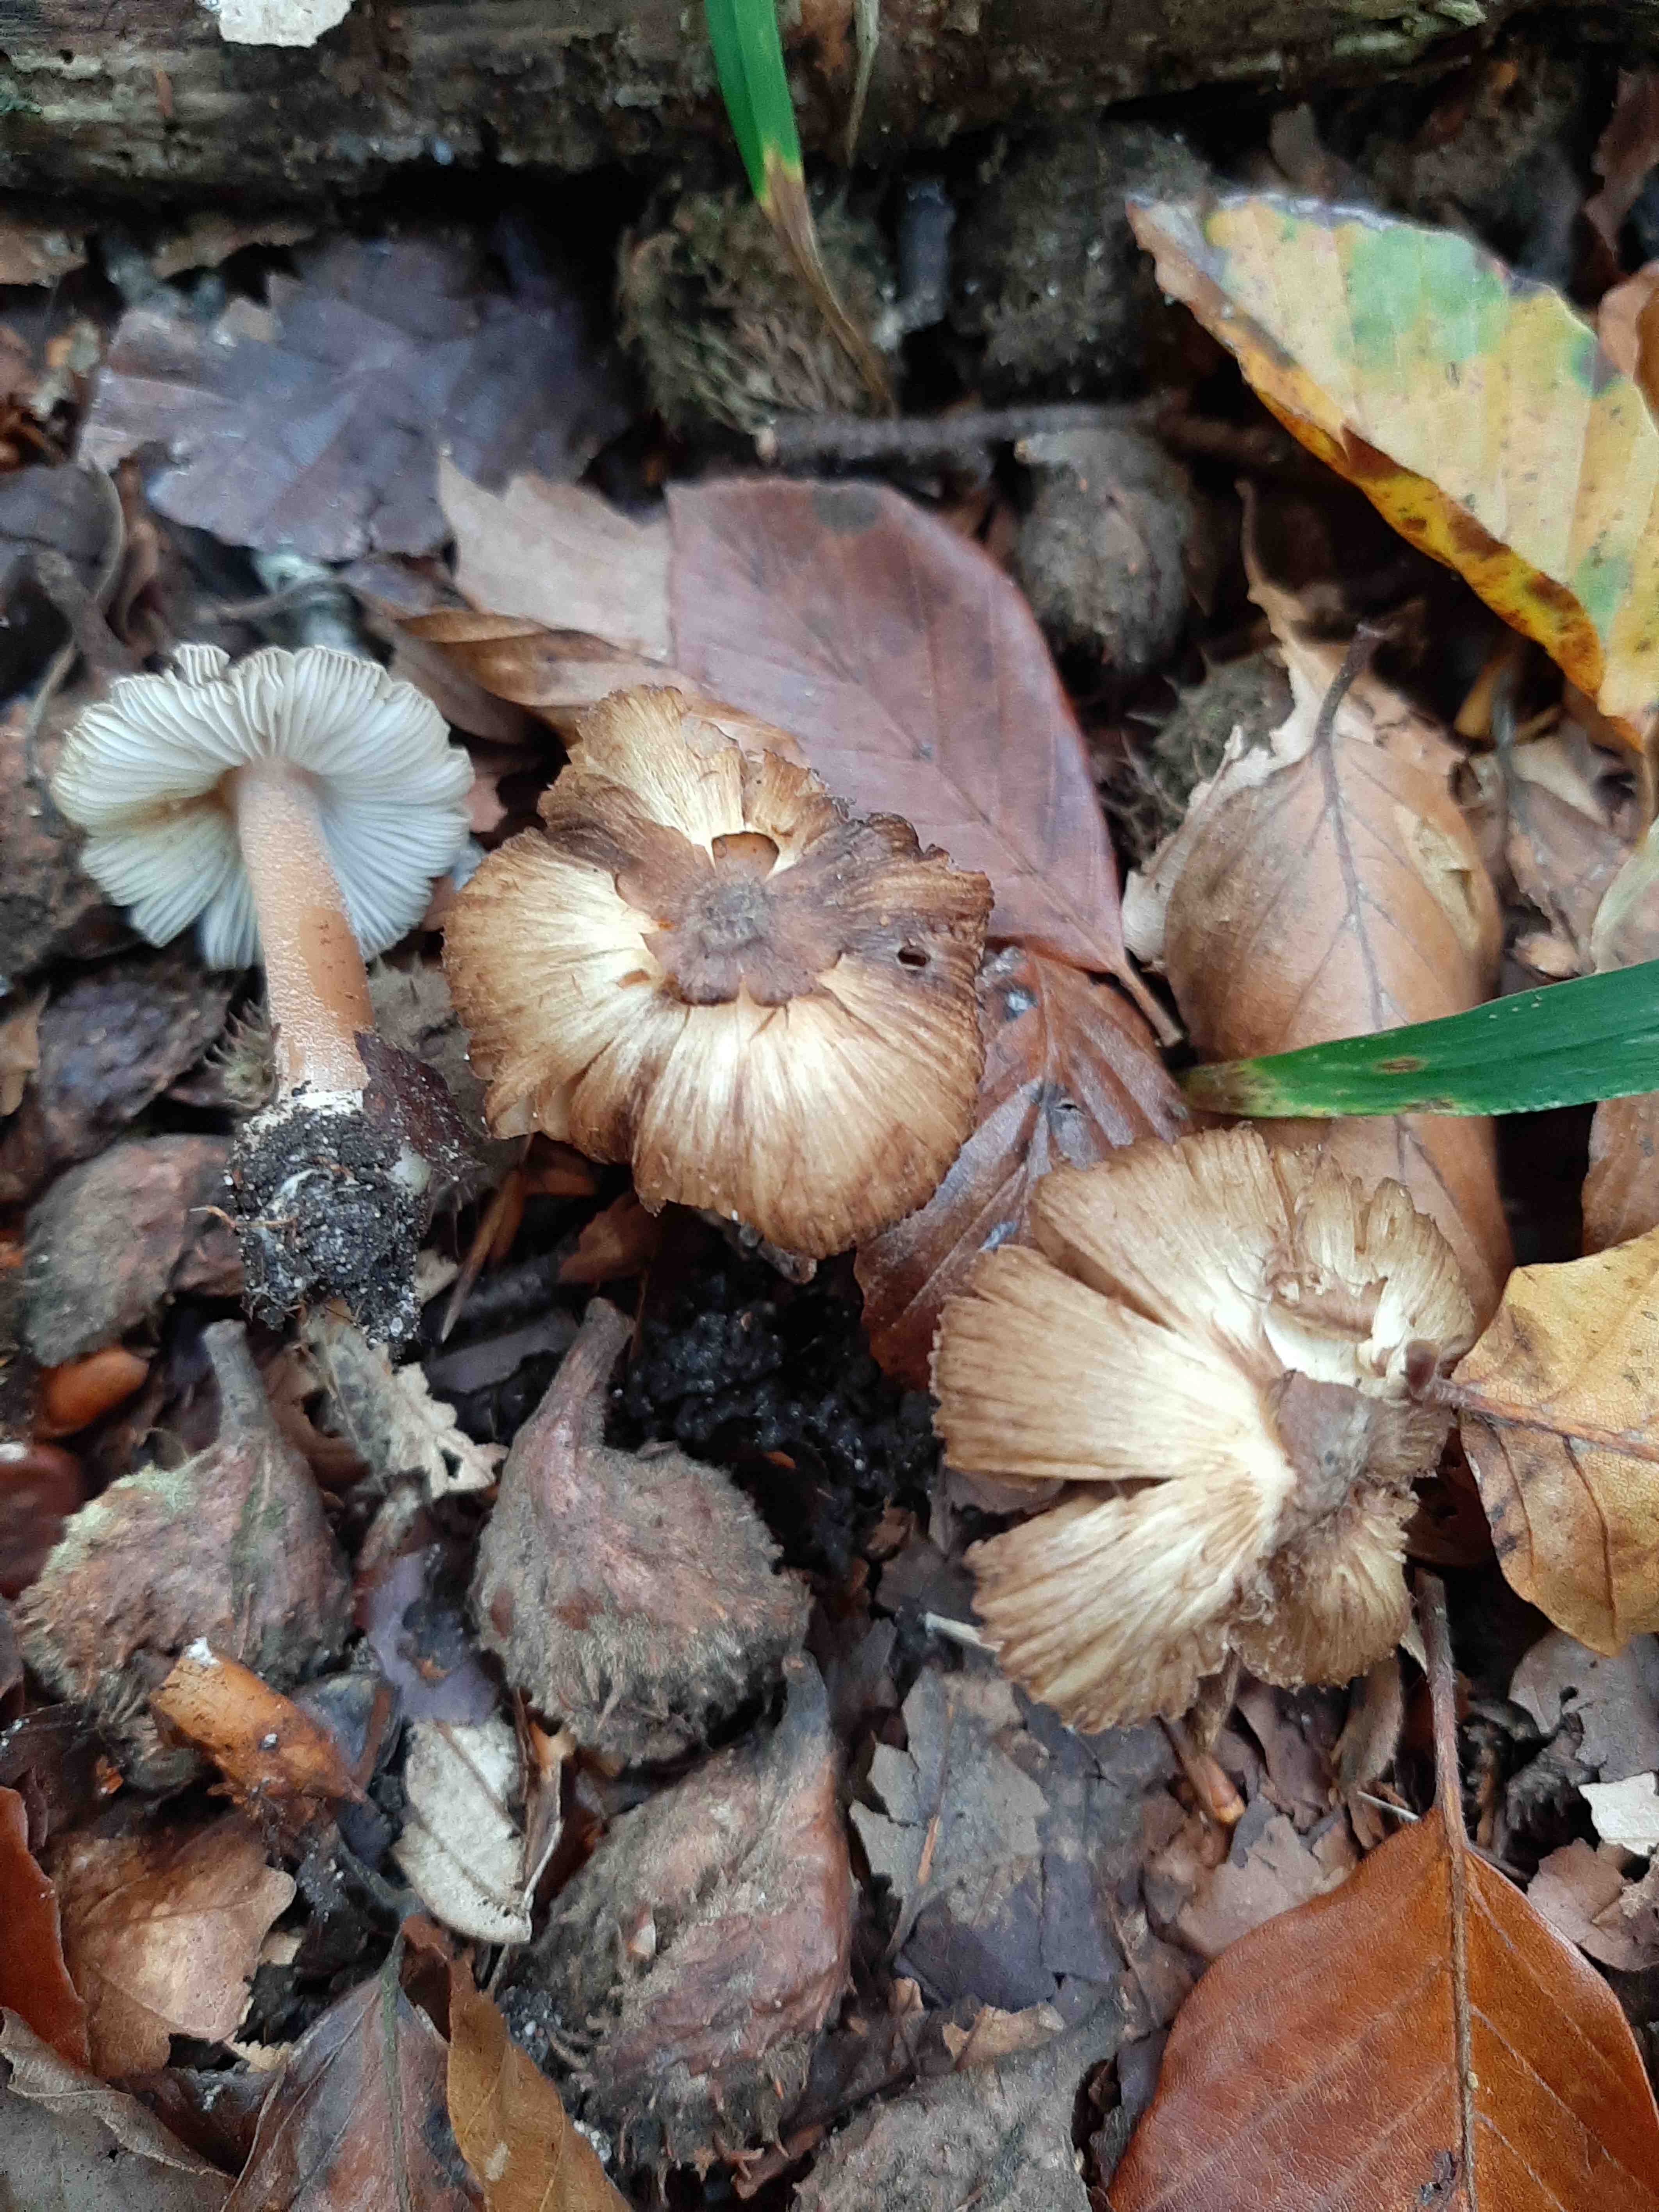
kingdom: Fungi
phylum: Basidiomycota
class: Agaricomycetes
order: Agaricales
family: Inocybaceae
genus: Inocybe
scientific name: Inocybe
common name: trævlhat
